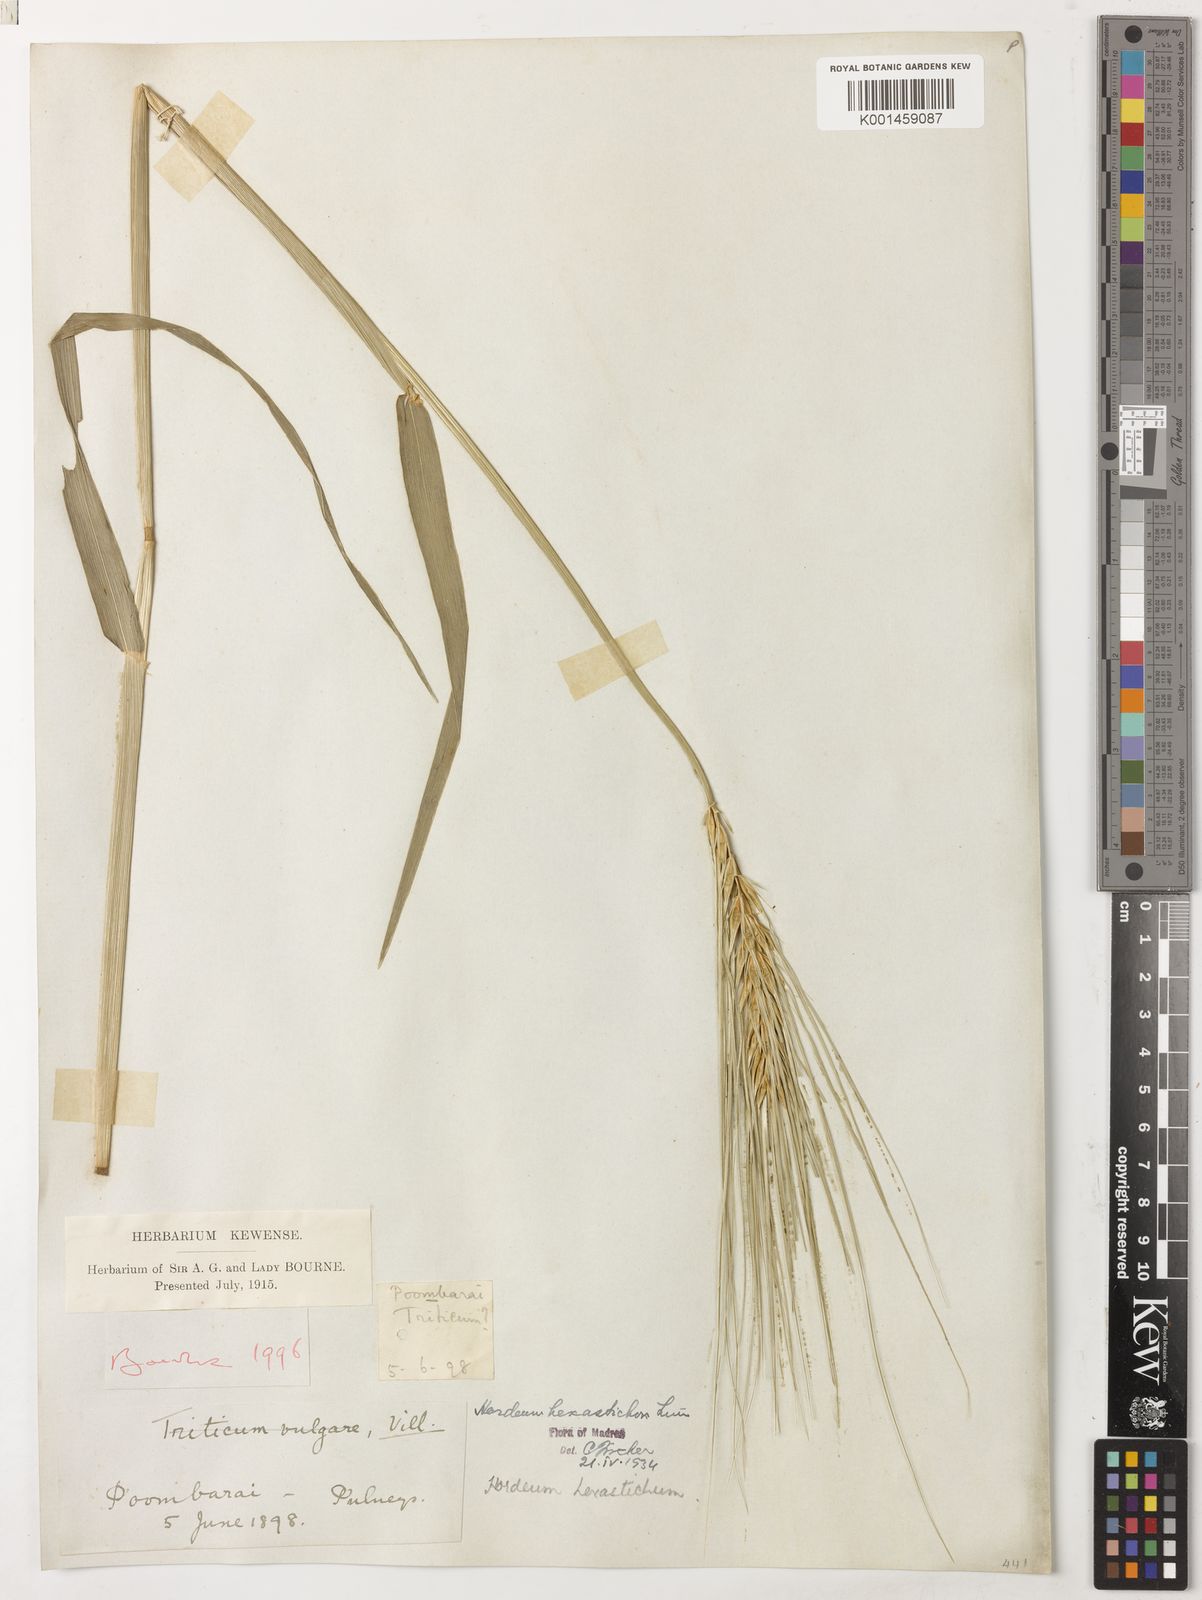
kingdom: Plantae
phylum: Tracheophyta
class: Liliopsida
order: Poales
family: Poaceae
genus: Hordeum
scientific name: Hordeum vulgare
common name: Common barley
